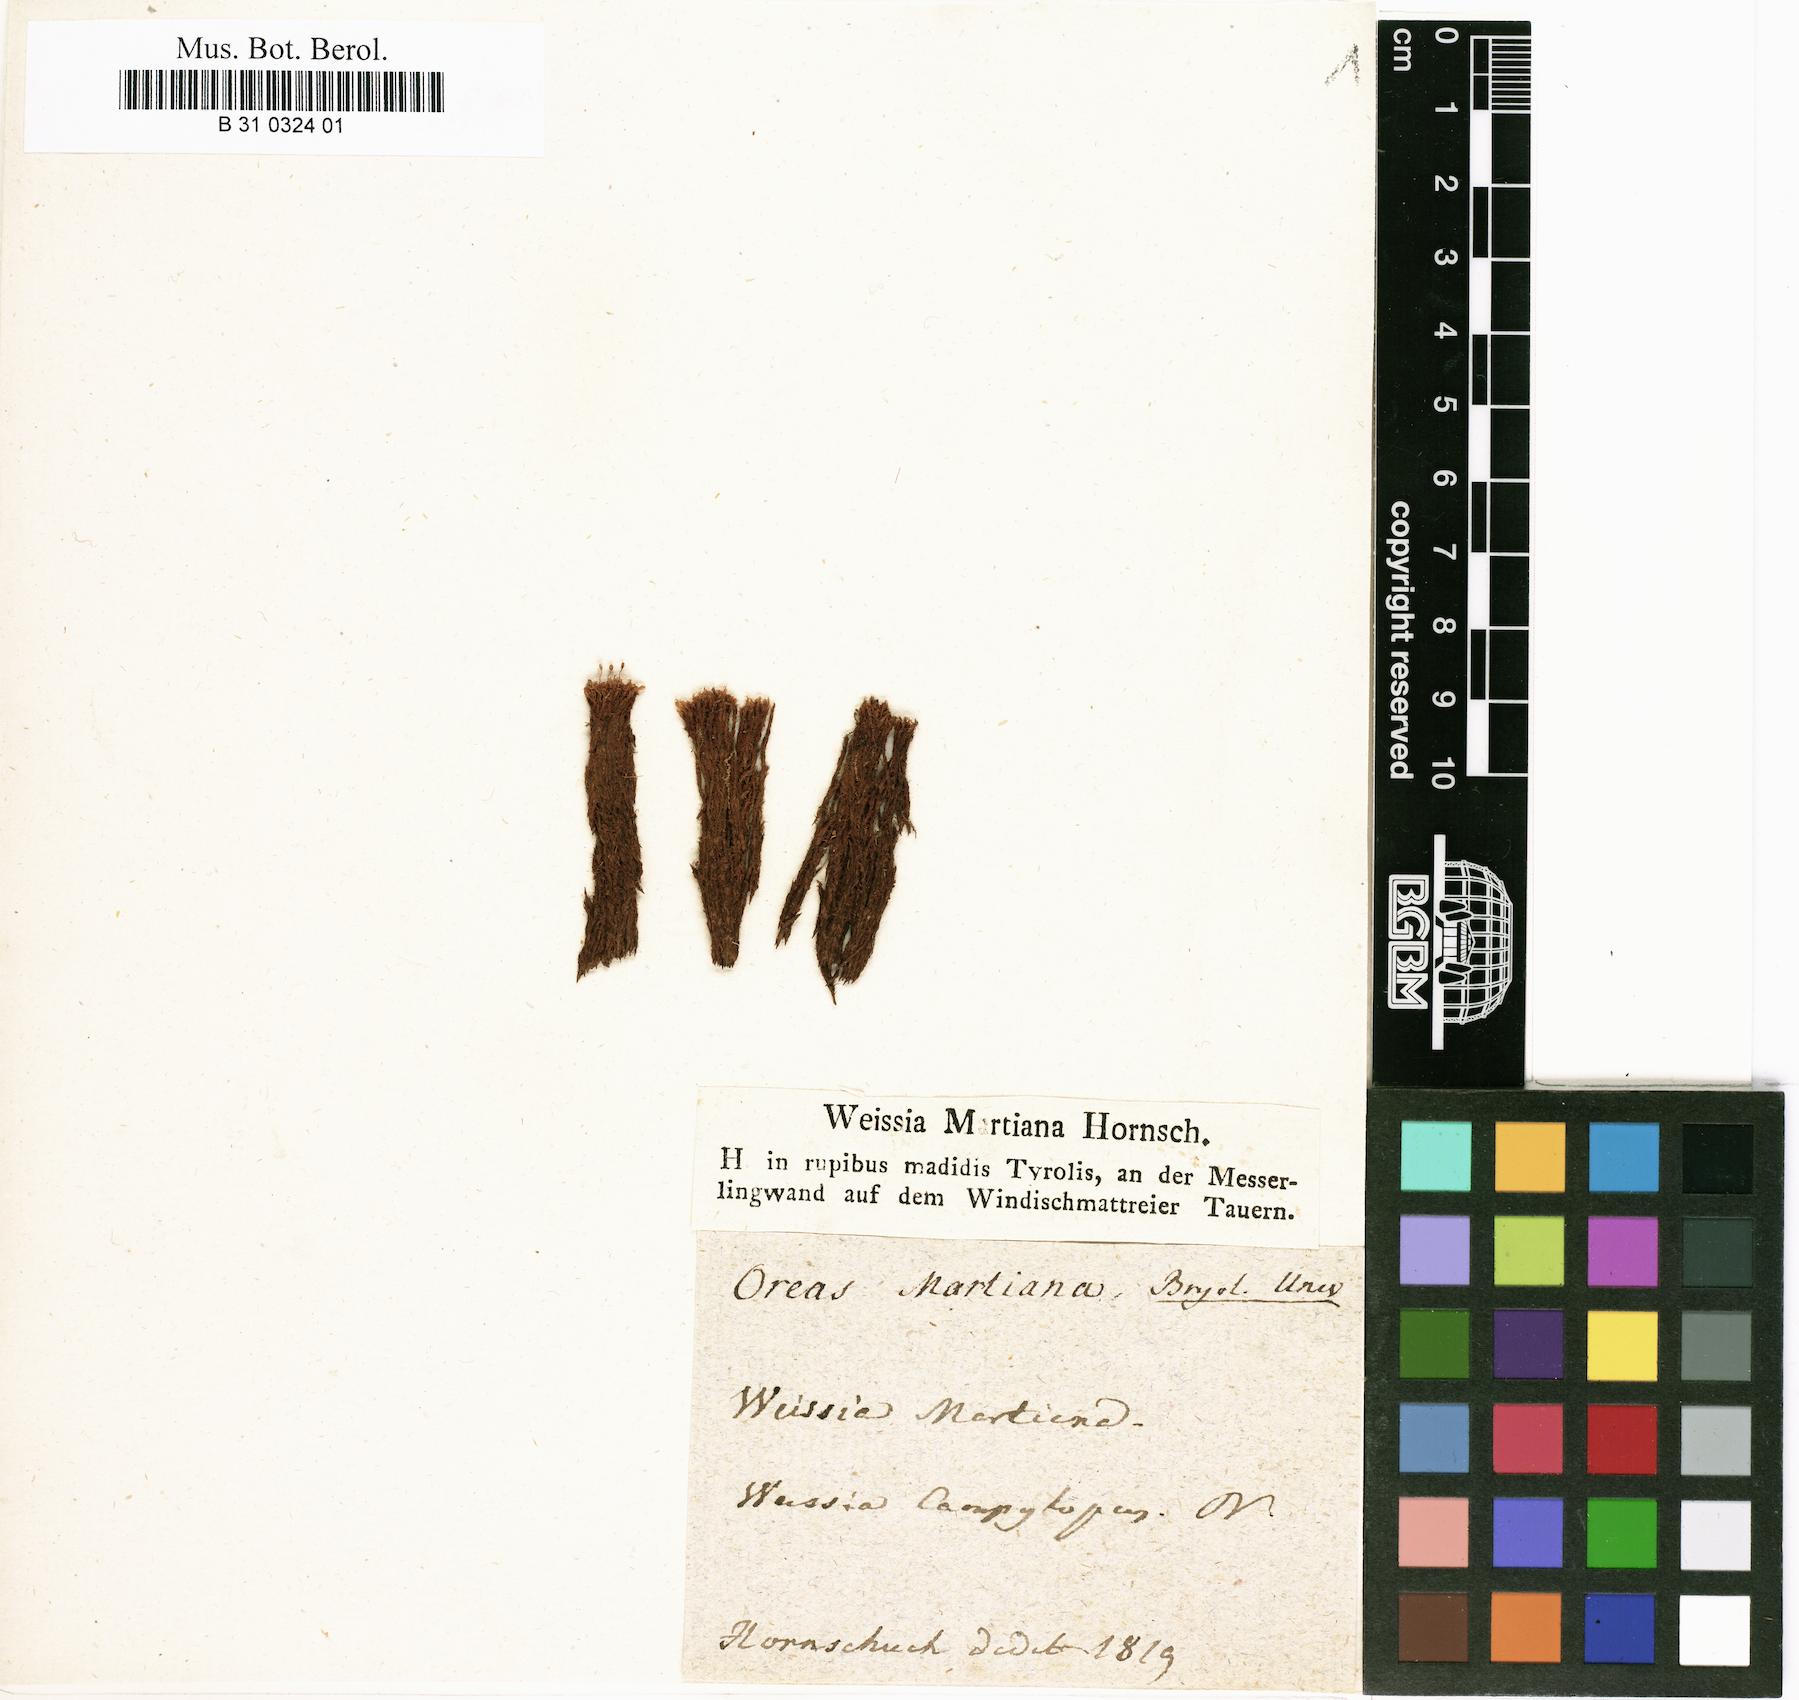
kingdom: Plantae
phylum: Bryophyta
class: Bryopsida
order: Dicranales
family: Rhabdoweisiaceae
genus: Oreas
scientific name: Oreas martiana
